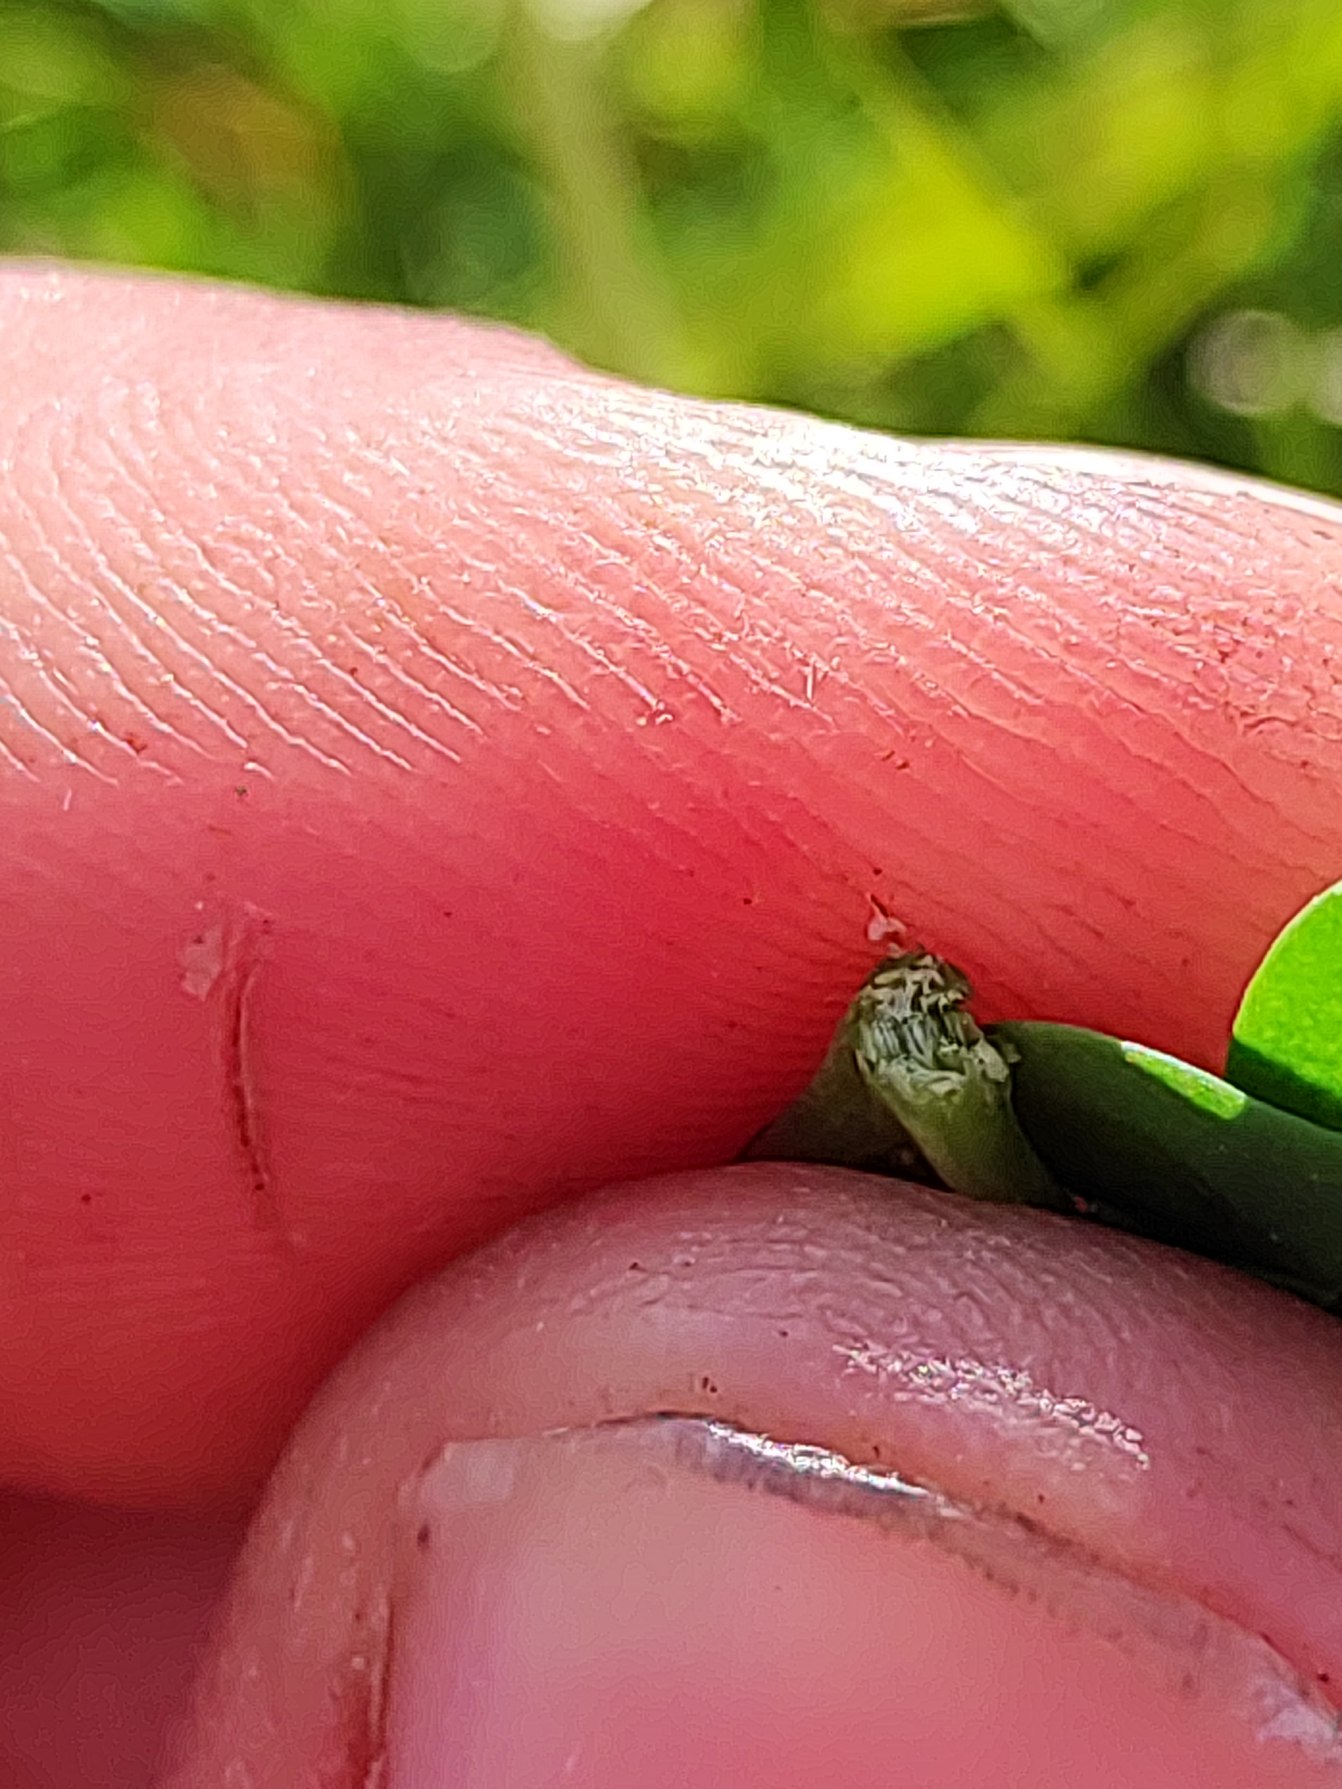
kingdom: Plantae
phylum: Tracheophyta
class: Magnoliopsida
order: Fabales
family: Fabaceae
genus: Lotus
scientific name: Lotus corniculatus
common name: Almindelig kællingetand
